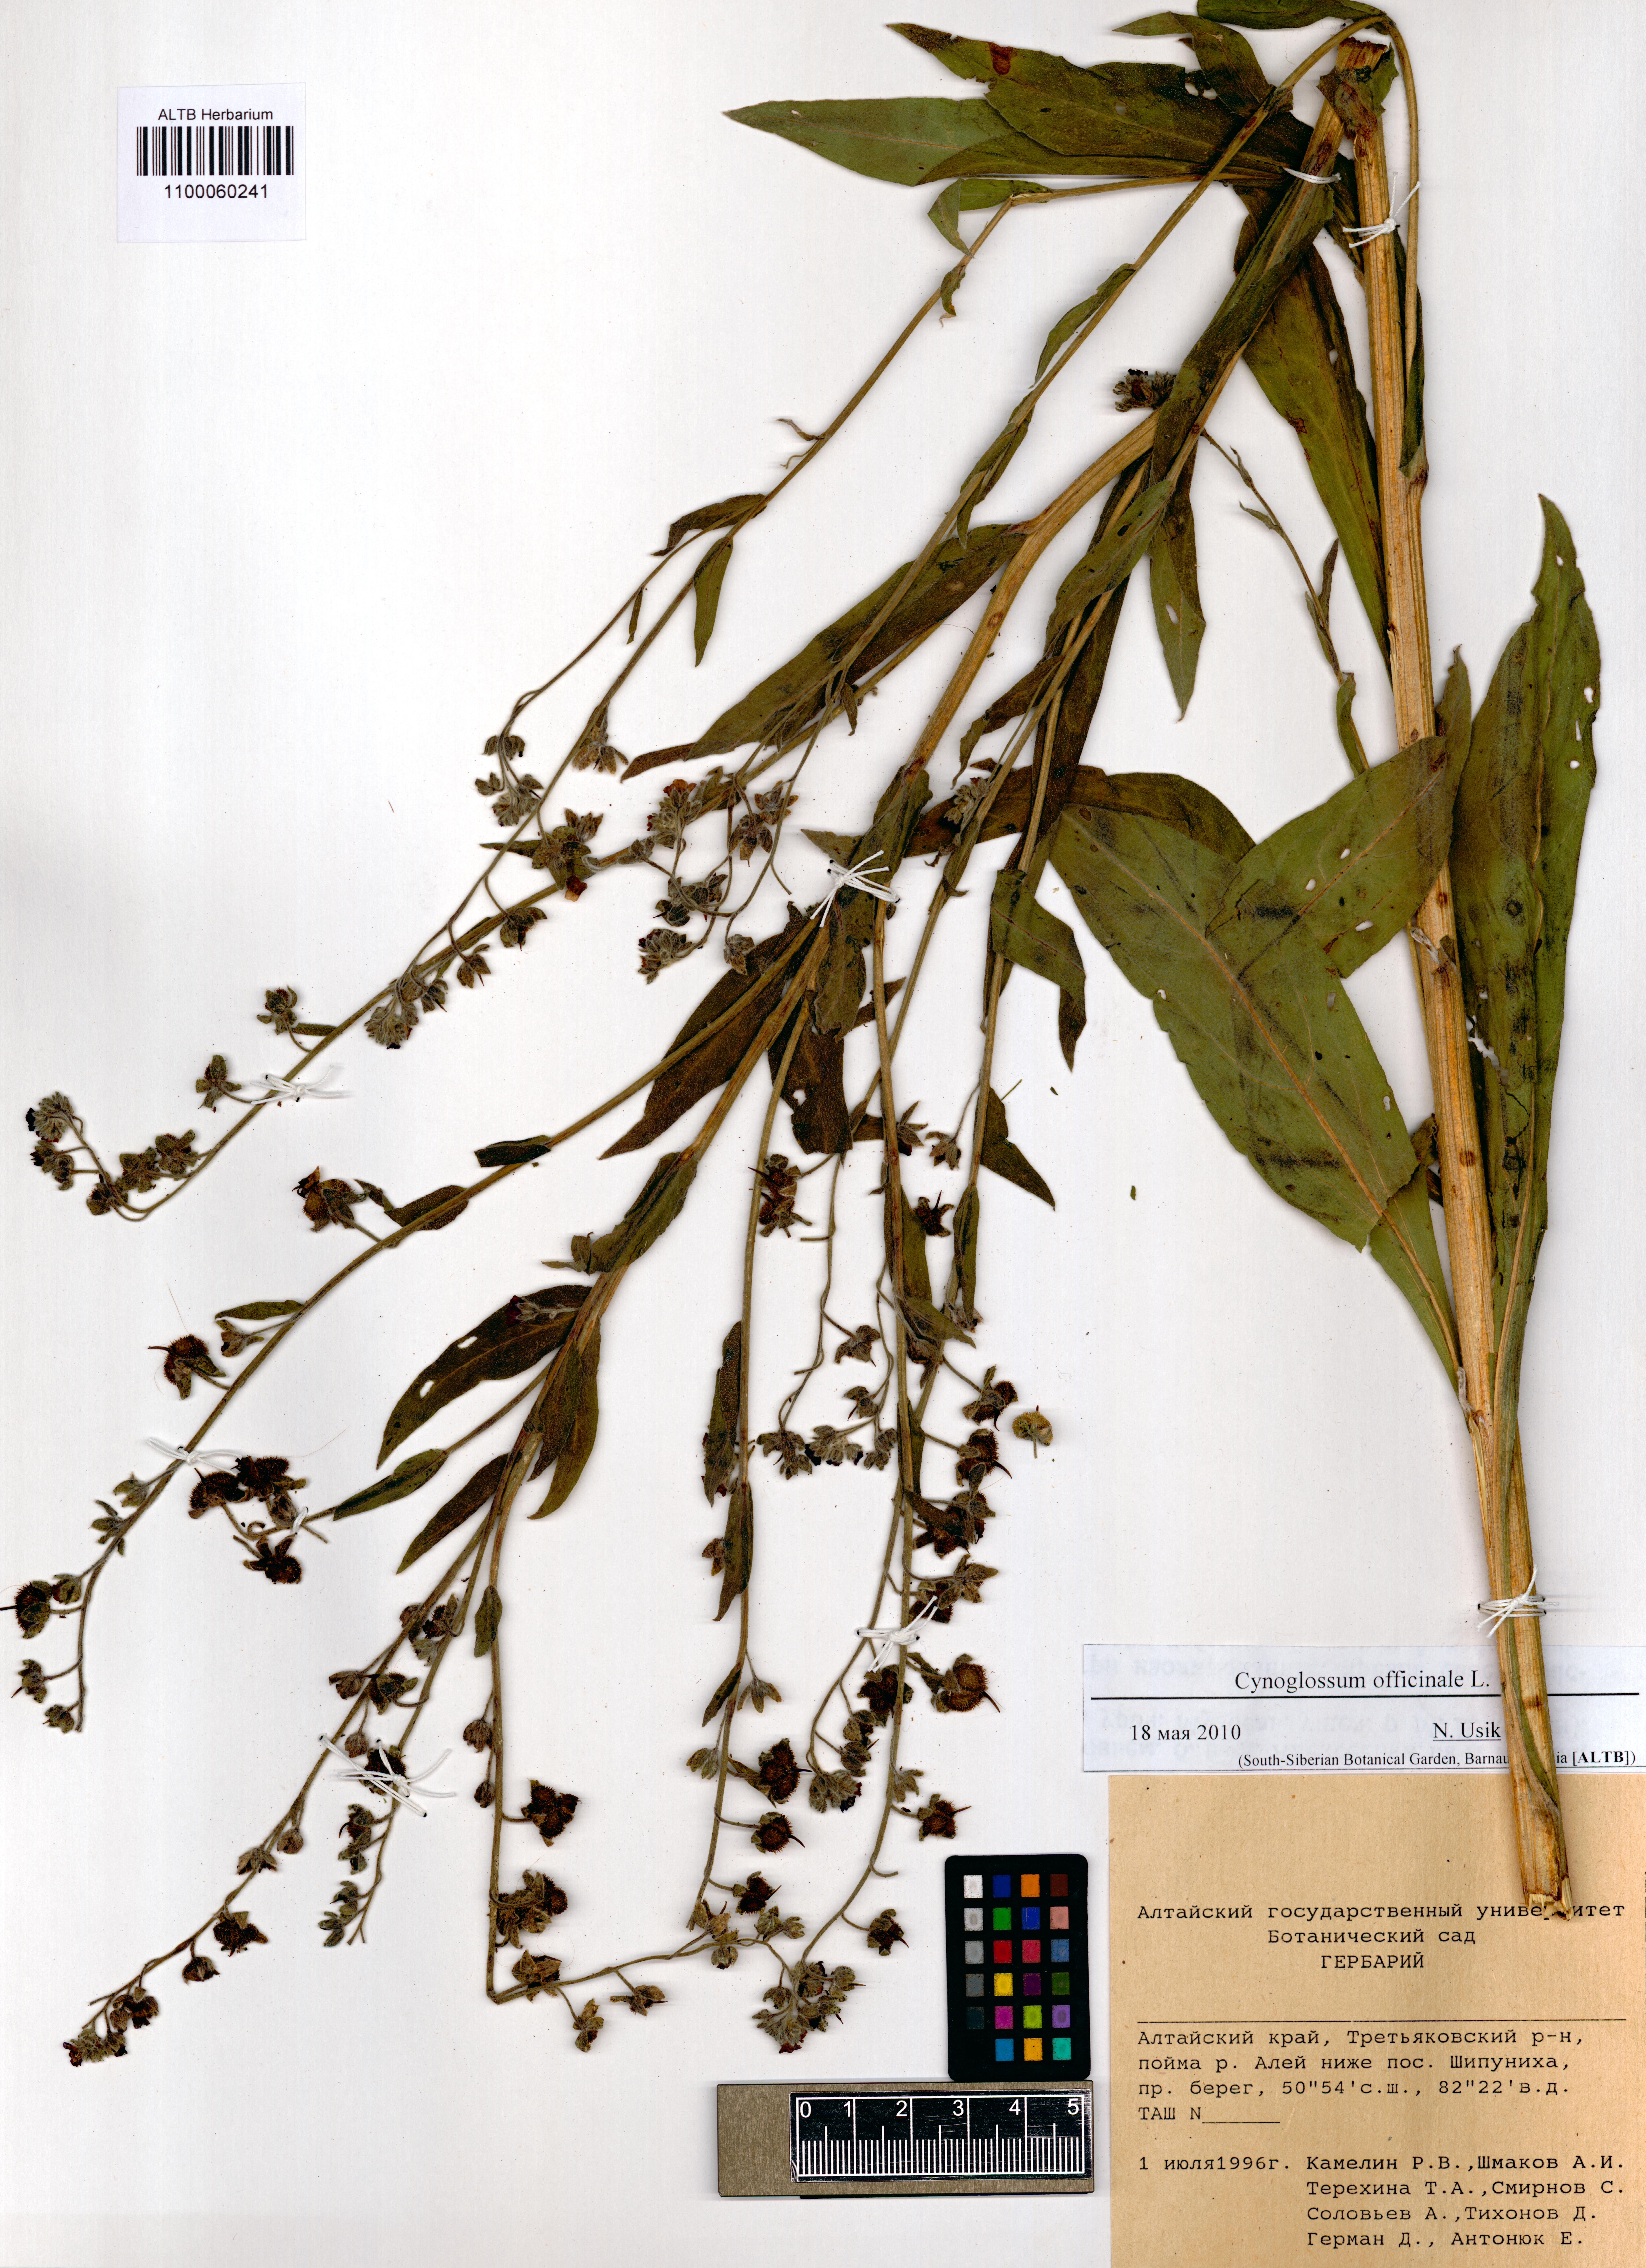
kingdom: Plantae
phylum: Tracheophyta
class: Magnoliopsida
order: Boraginales
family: Boraginaceae
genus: Cynoglossum
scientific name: Cynoglossum officinale
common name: Hound's-tongue
